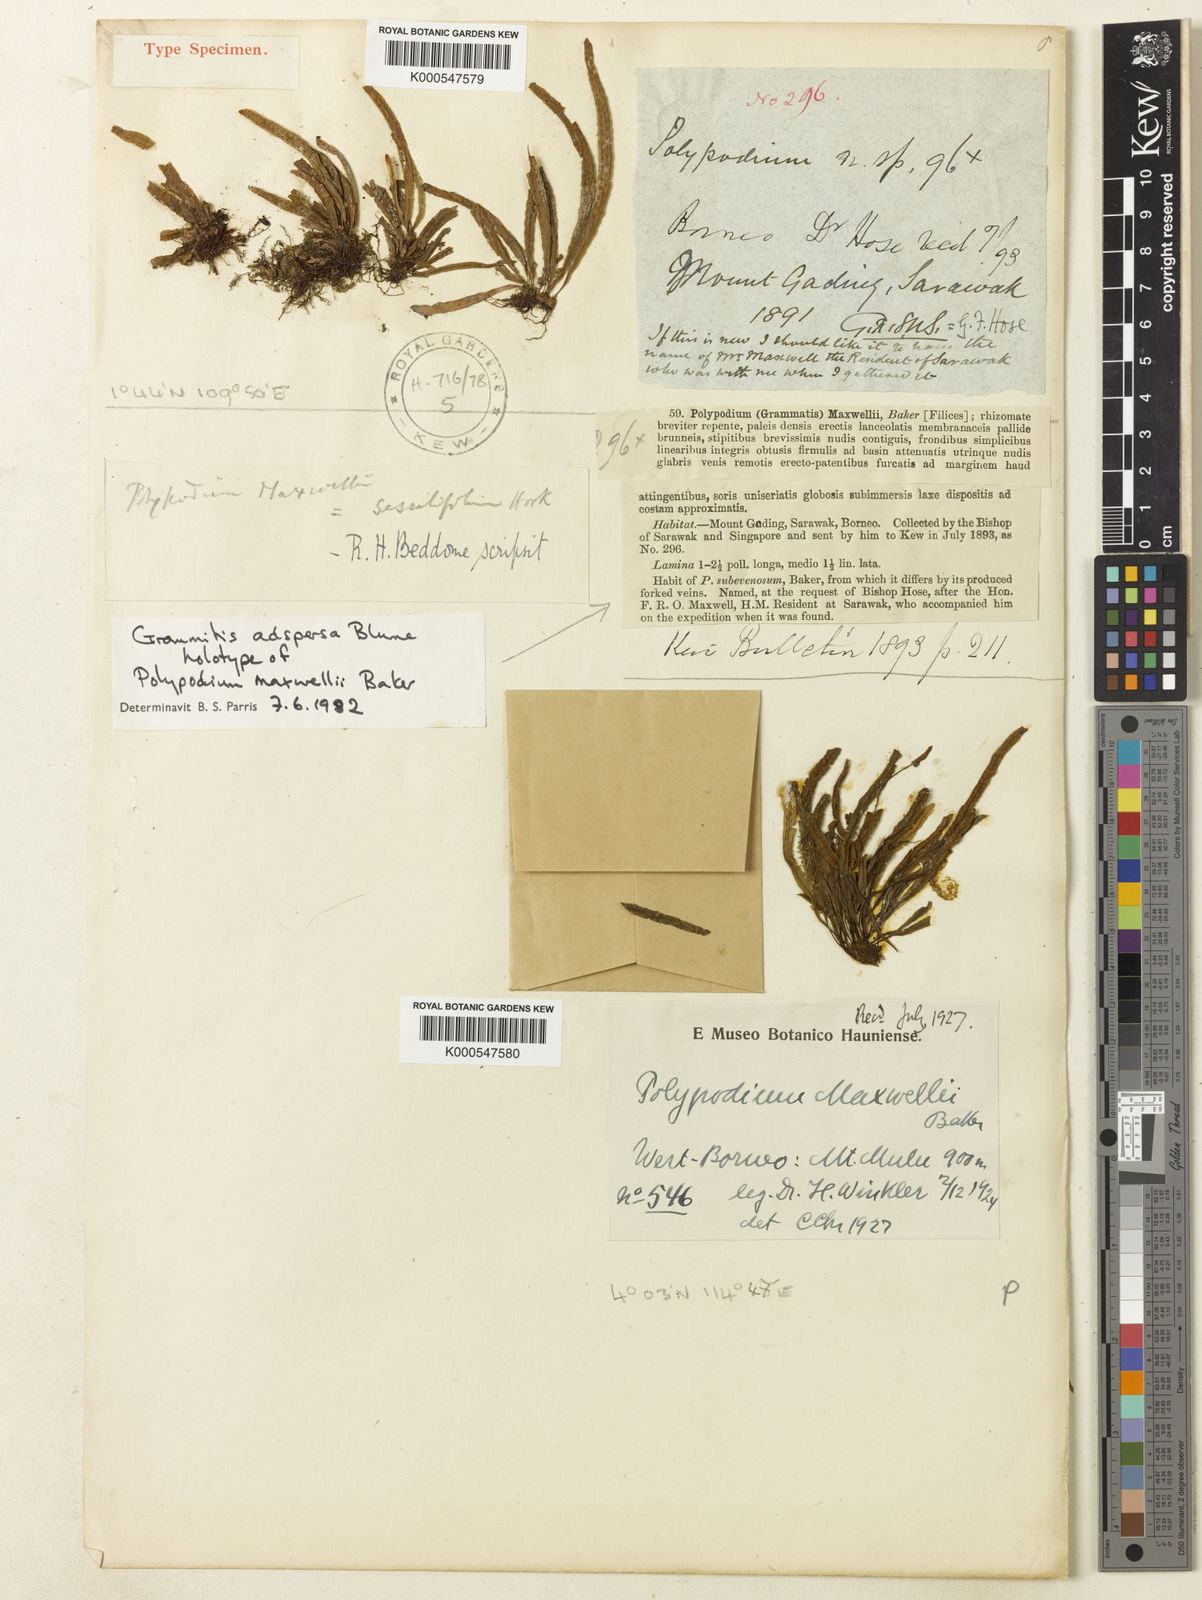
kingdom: Plantae
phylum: Tracheophyta
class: Polypodiopsida
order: Polypodiales
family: Polypodiaceae
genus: Oreogrammitis
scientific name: Oreogrammitis adspersa
